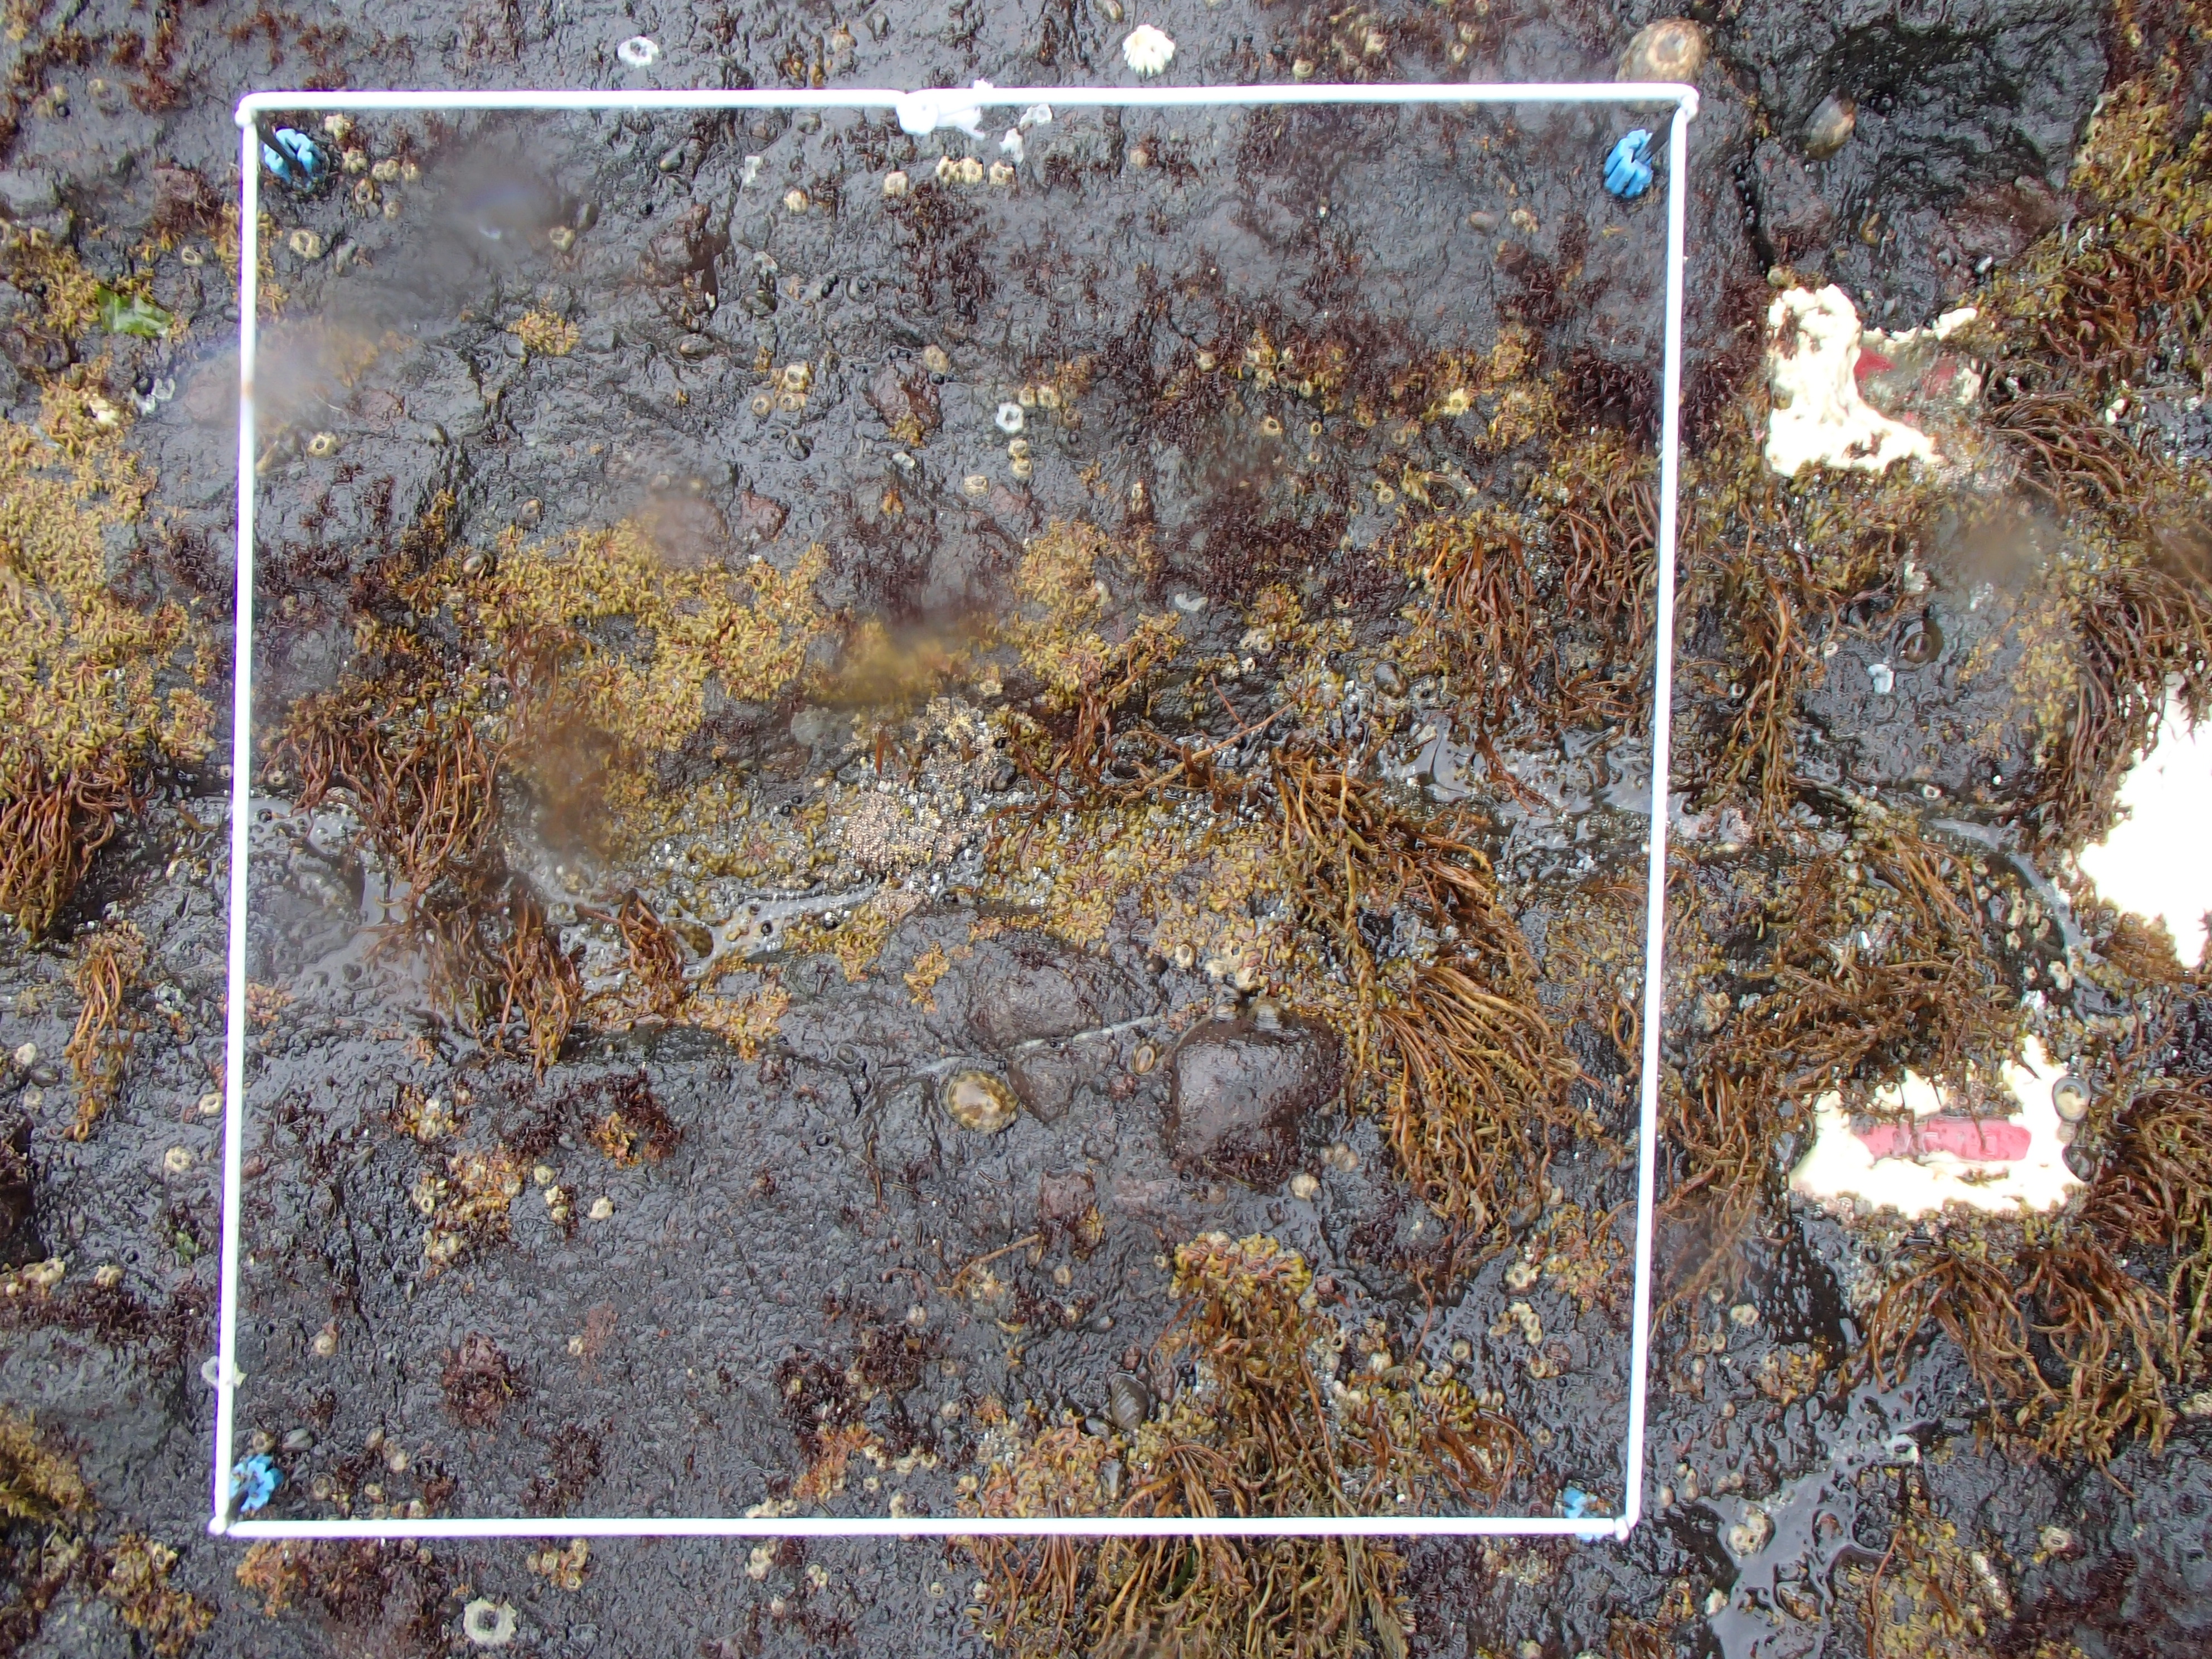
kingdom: Plantae
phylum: Rhodophyta
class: Florideophyceae
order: Corallinales
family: Corallinaceae
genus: Corallina
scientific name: Corallina pilulifera
